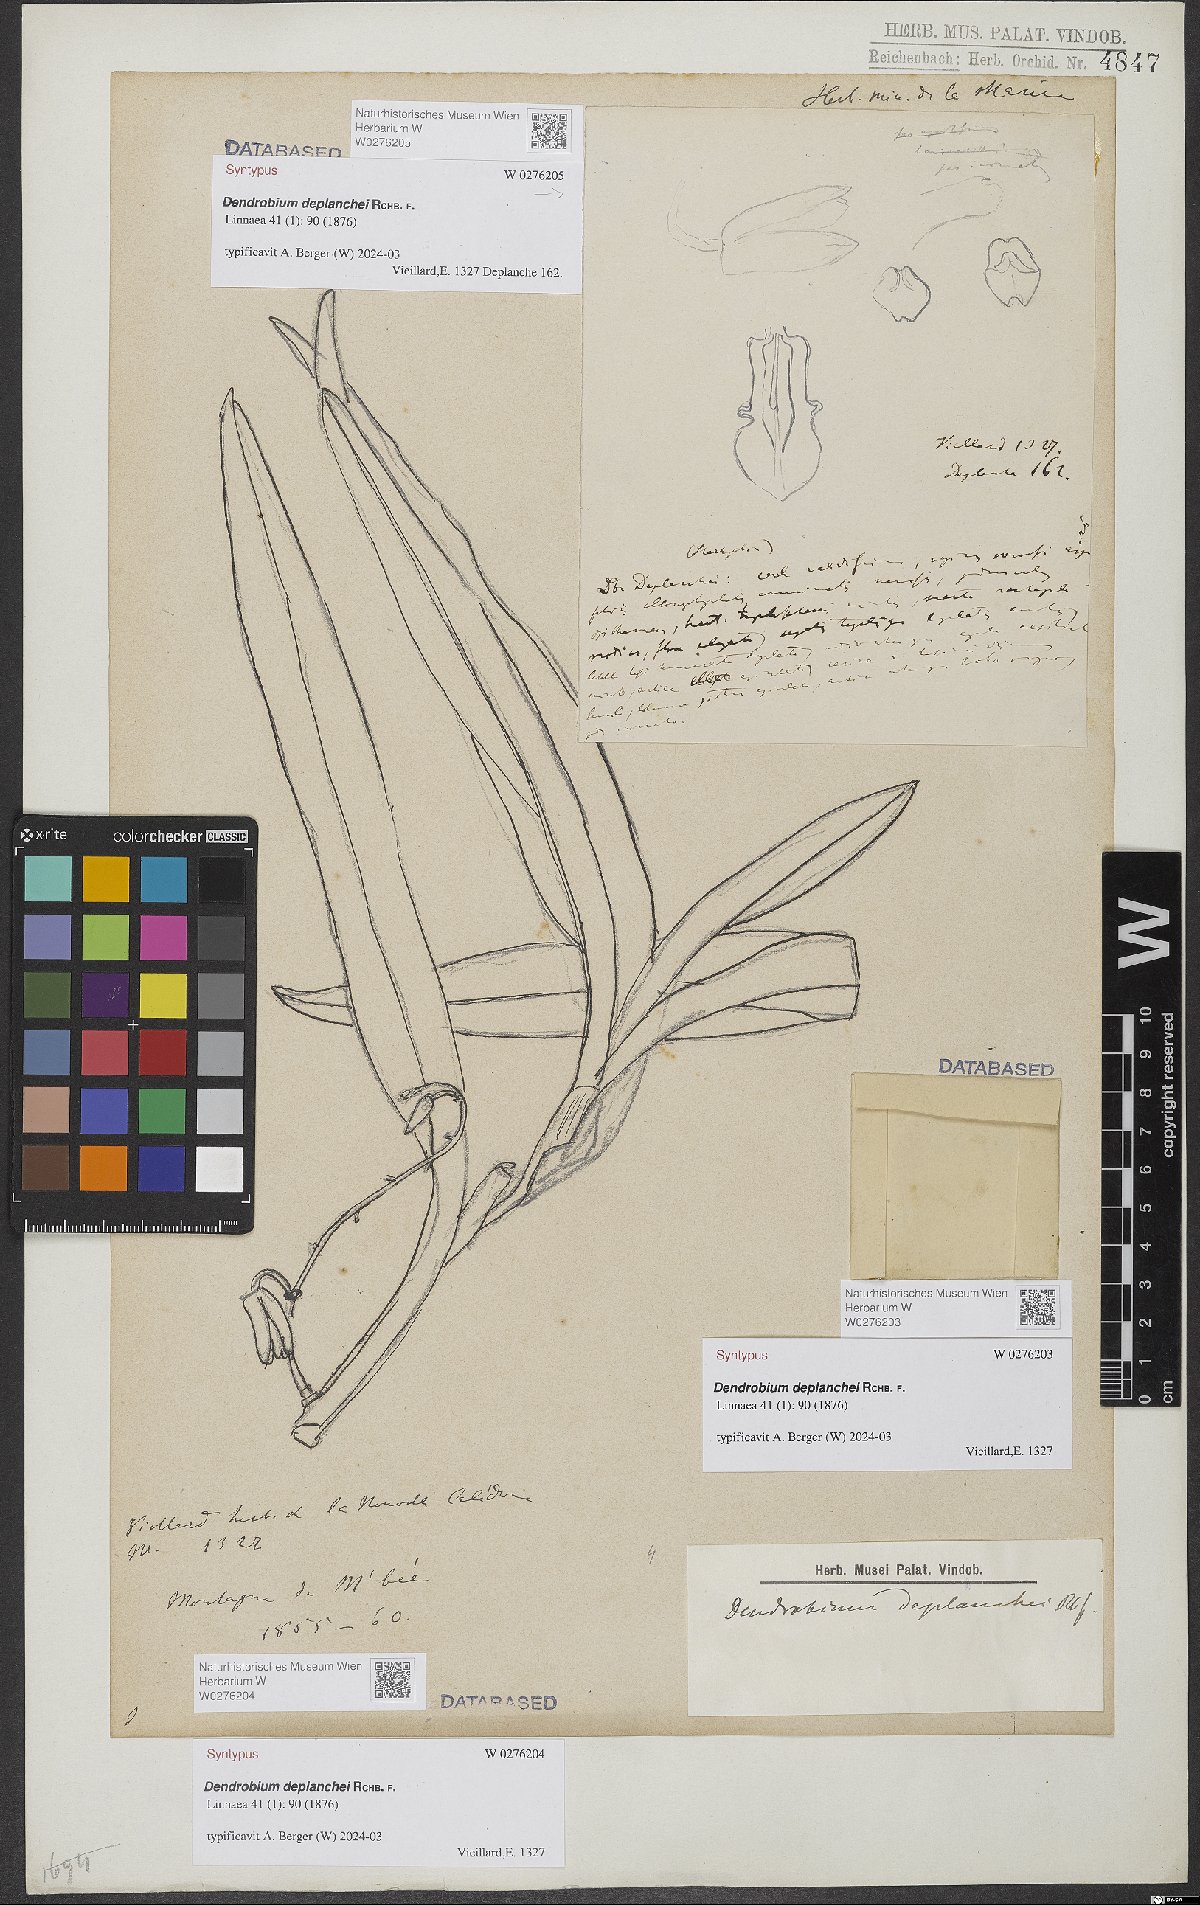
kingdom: Plantae
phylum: Tracheophyta
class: Liliopsida
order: Asparagales
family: Orchidaceae
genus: Dendrobium
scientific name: Dendrobium deplanchei
